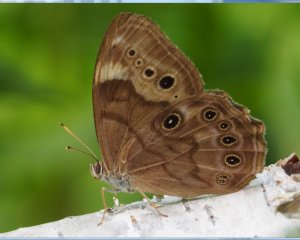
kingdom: Animalia
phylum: Arthropoda
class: Insecta
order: Lepidoptera
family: Nymphalidae
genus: Lethe
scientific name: Lethe anthedon
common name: Northern Pearly-Eye
